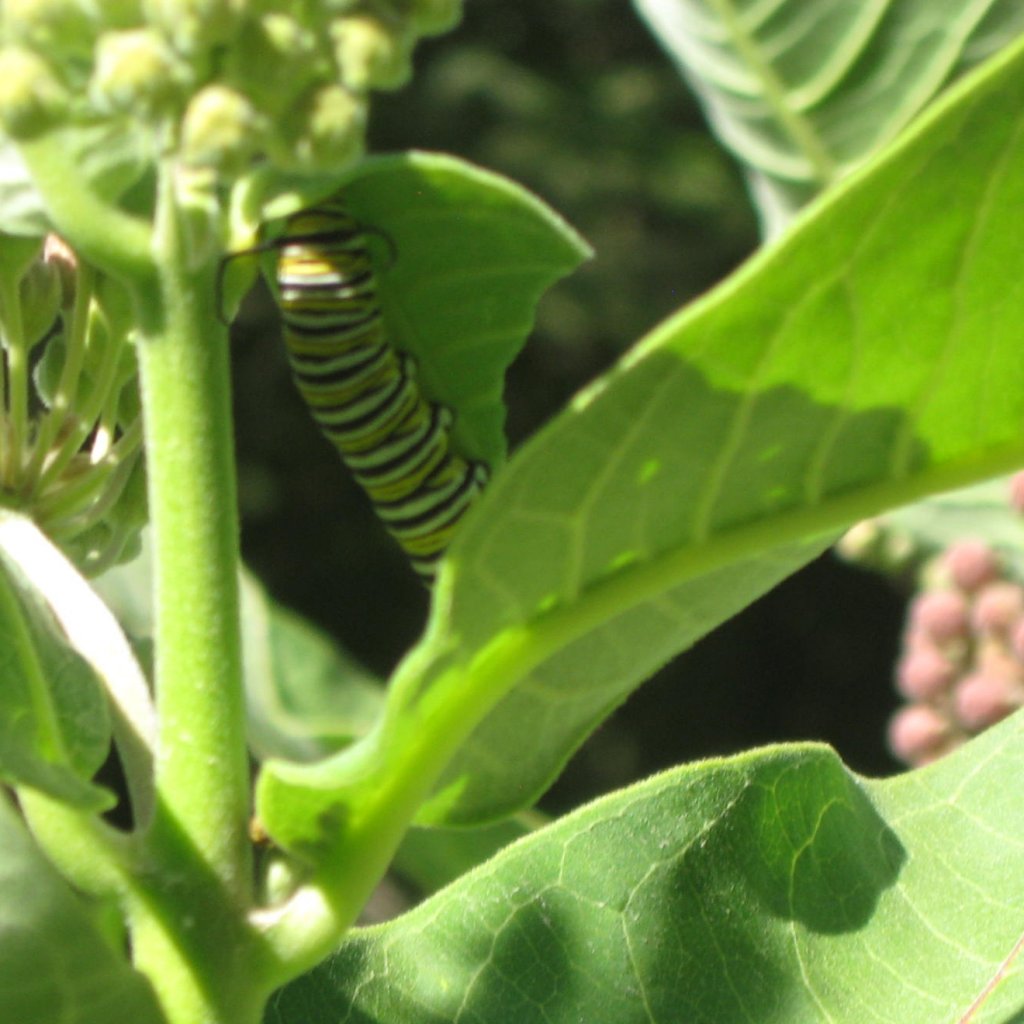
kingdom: Animalia
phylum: Arthropoda
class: Insecta
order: Lepidoptera
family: Nymphalidae
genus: Danaus
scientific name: Danaus plexippus
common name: Monarch
